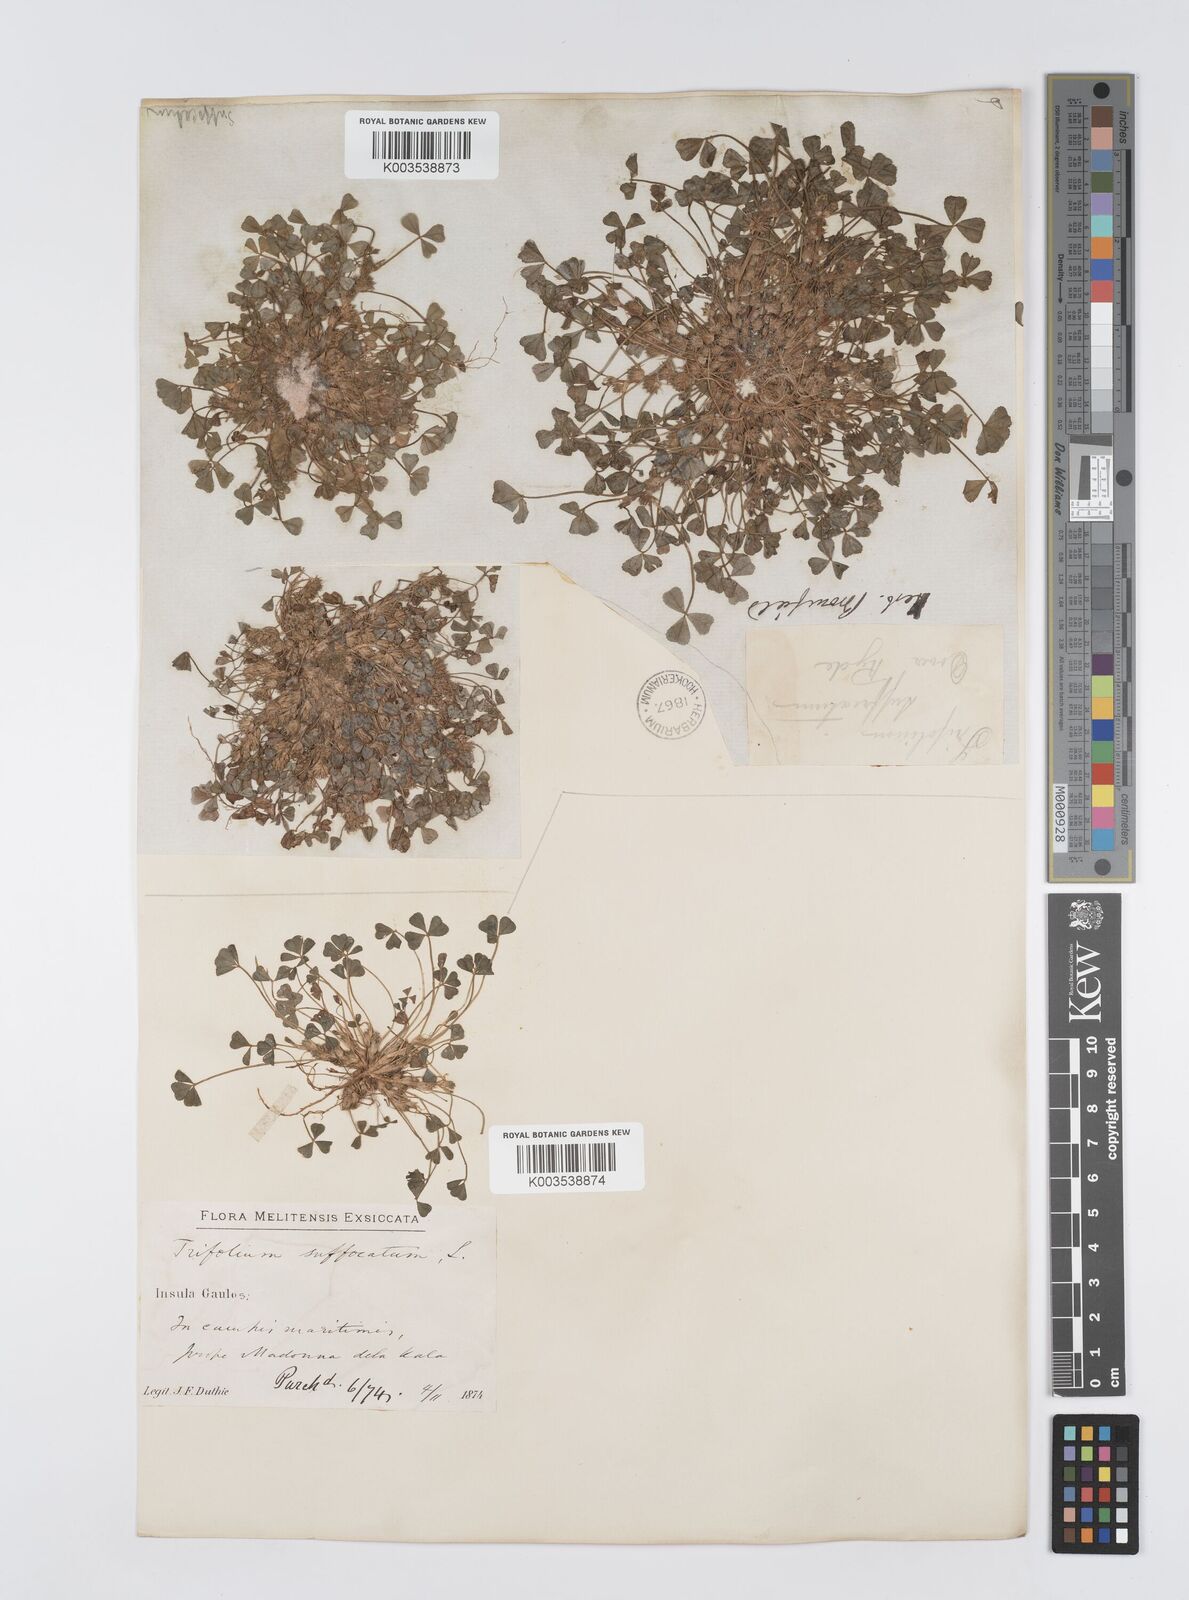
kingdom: Plantae
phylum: Tracheophyta
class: Magnoliopsida
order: Fabales
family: Fabaceae
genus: Trifolium
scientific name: Trifolium suffocatum
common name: Suffocated clover
